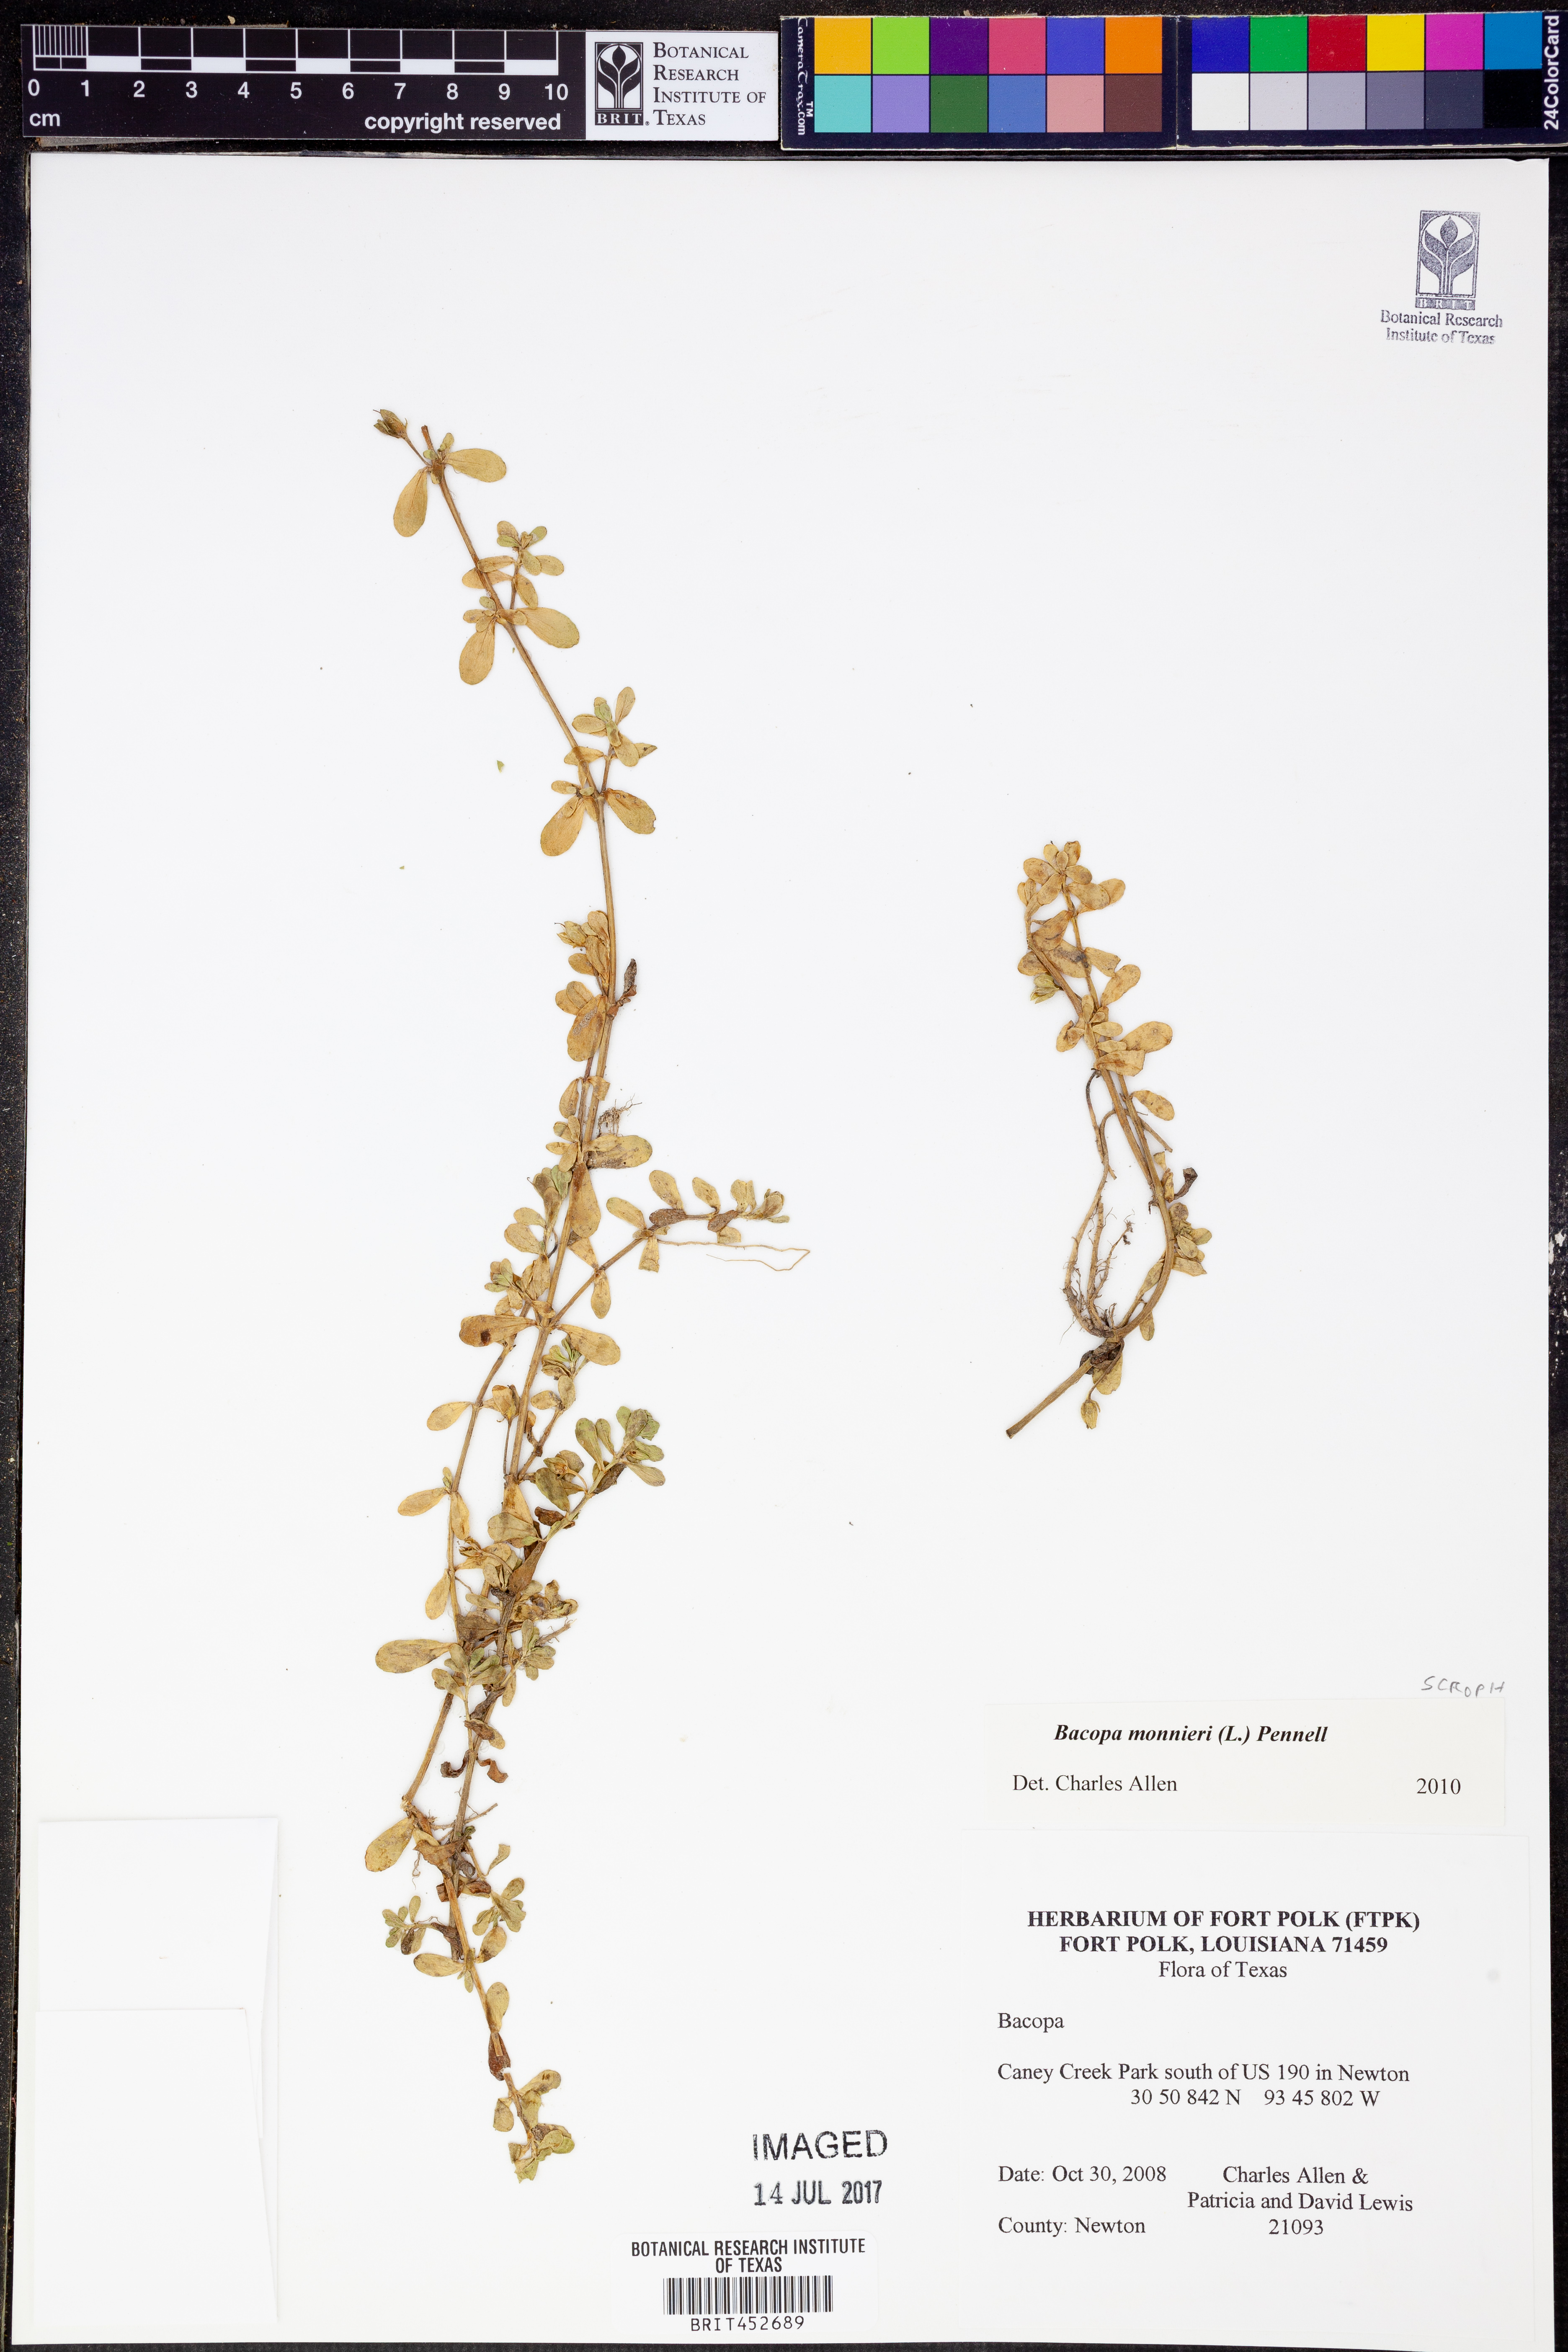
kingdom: Plantae
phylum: Tracheophyta
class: Magnoliopsida
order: Lamiales
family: Plantaginaceae
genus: Bacopa
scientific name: Bacopa monnieri
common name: Indian-pennywort
